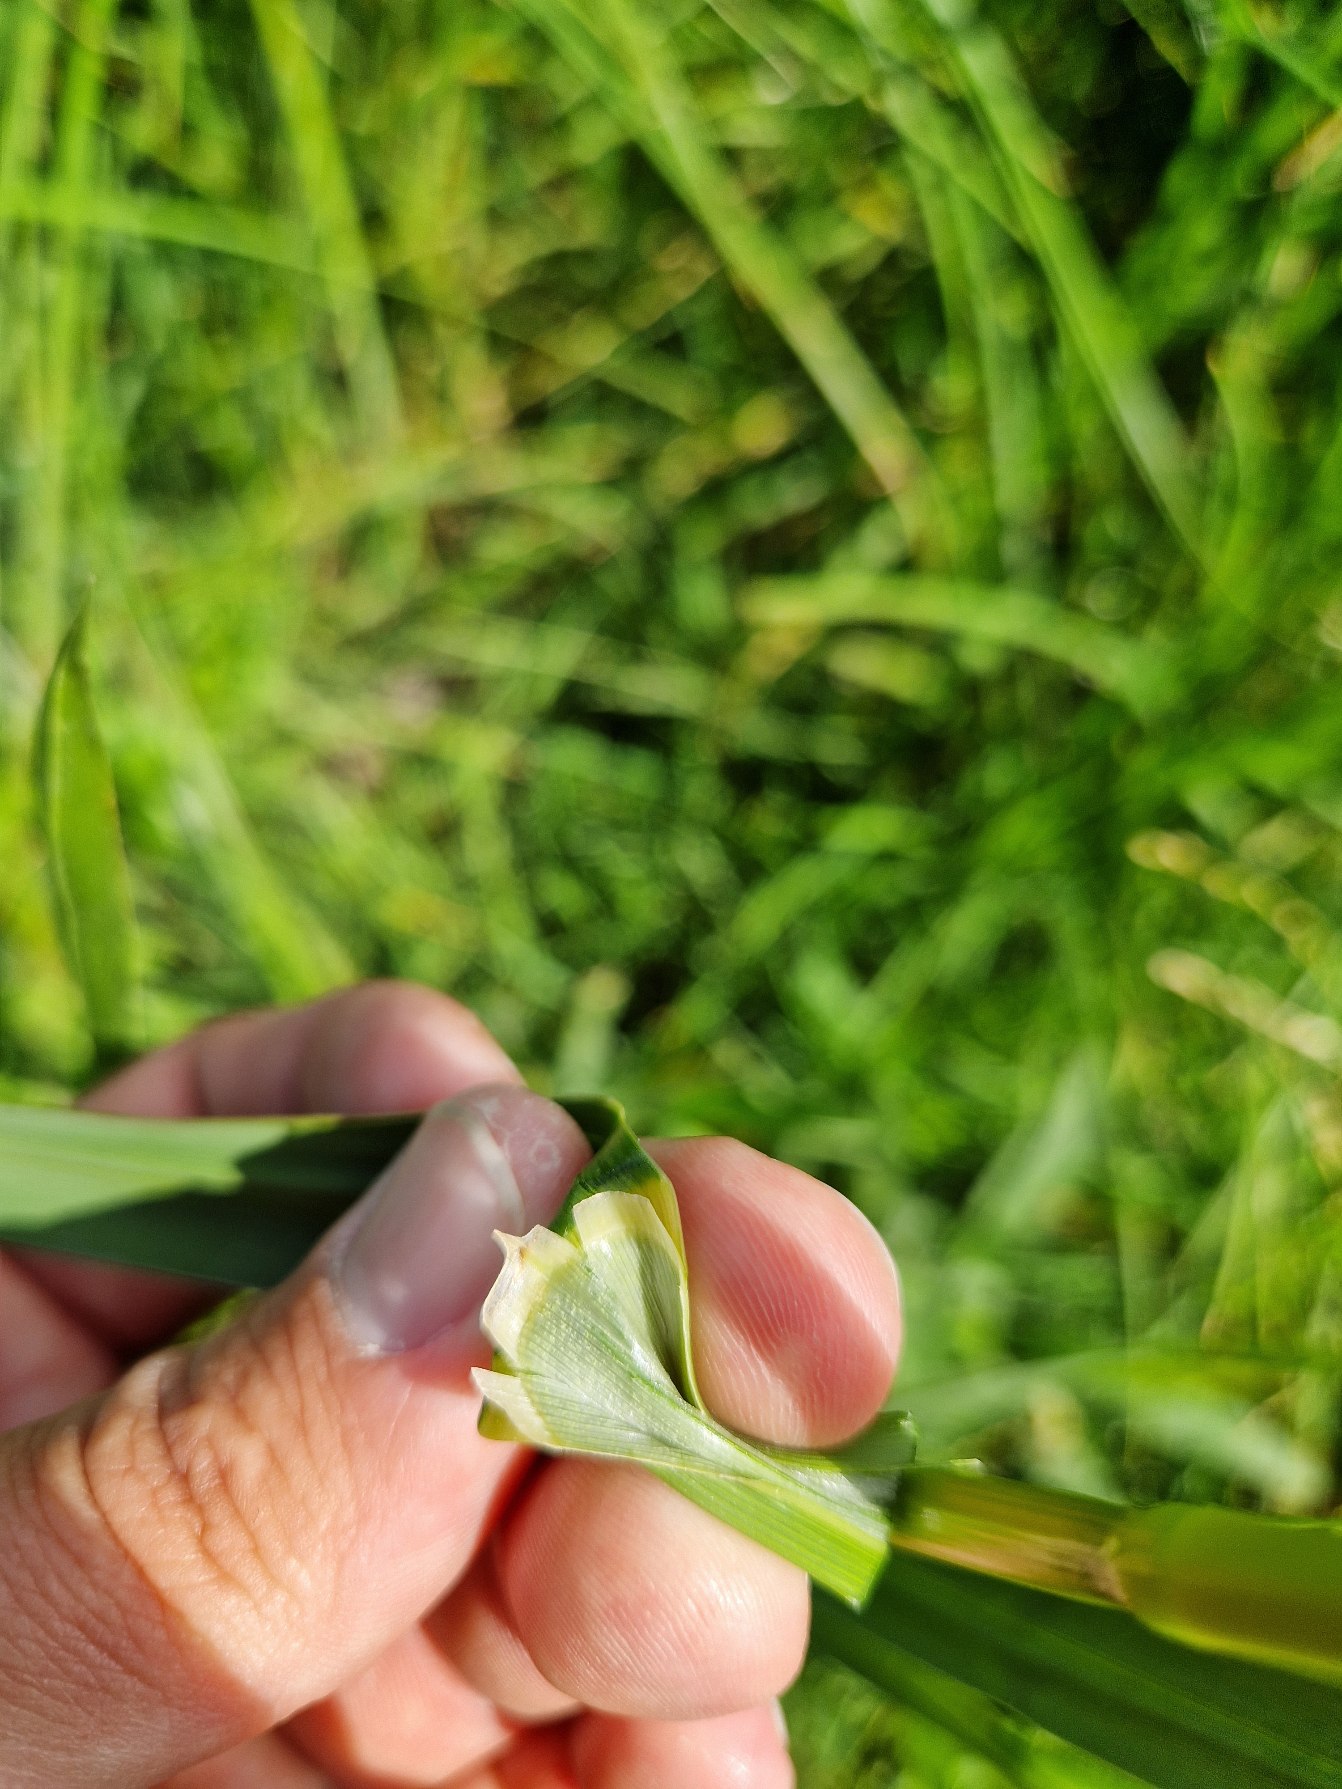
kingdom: Plantae
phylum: Tracheophyta
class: Liliopsida
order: Poales
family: Poaceae
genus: Glyceria
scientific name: Glyceria maxima
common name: Høj sødgræs
